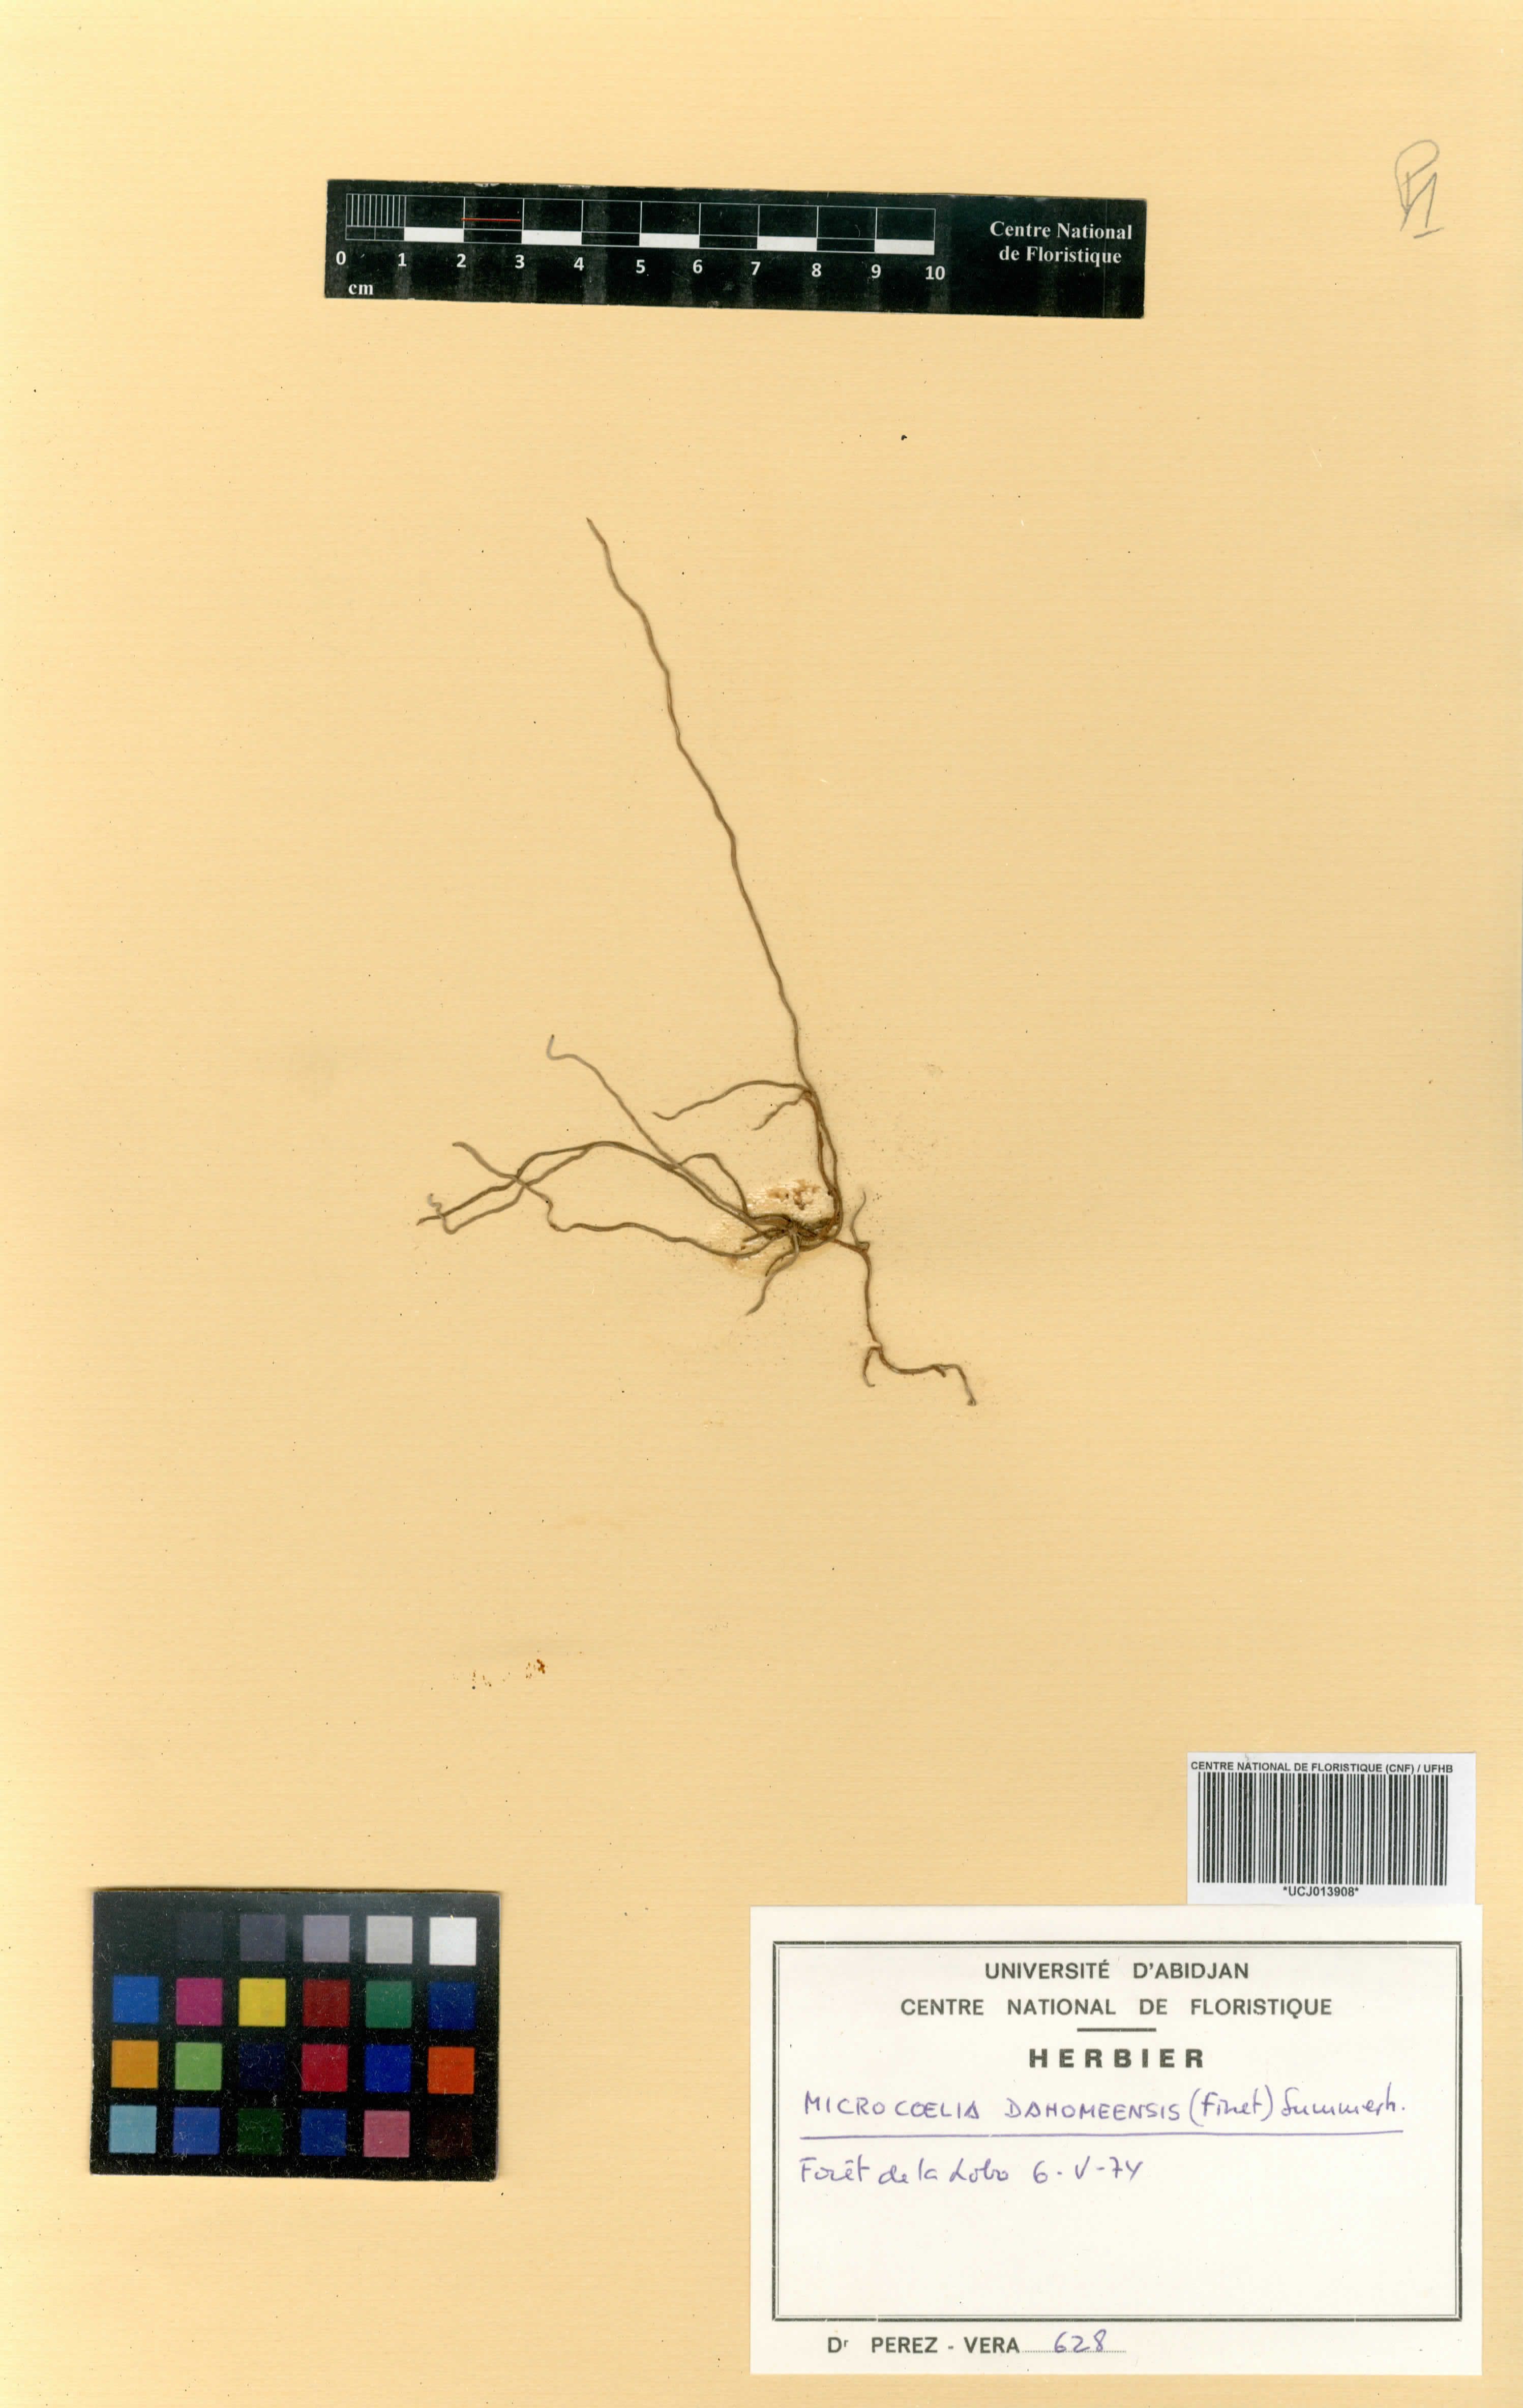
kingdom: Plantae
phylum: Tracheophyta
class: Liliopsida
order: Asparagales
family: Orchidaceae
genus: Microcoelia
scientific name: Microcoelia konduensis
